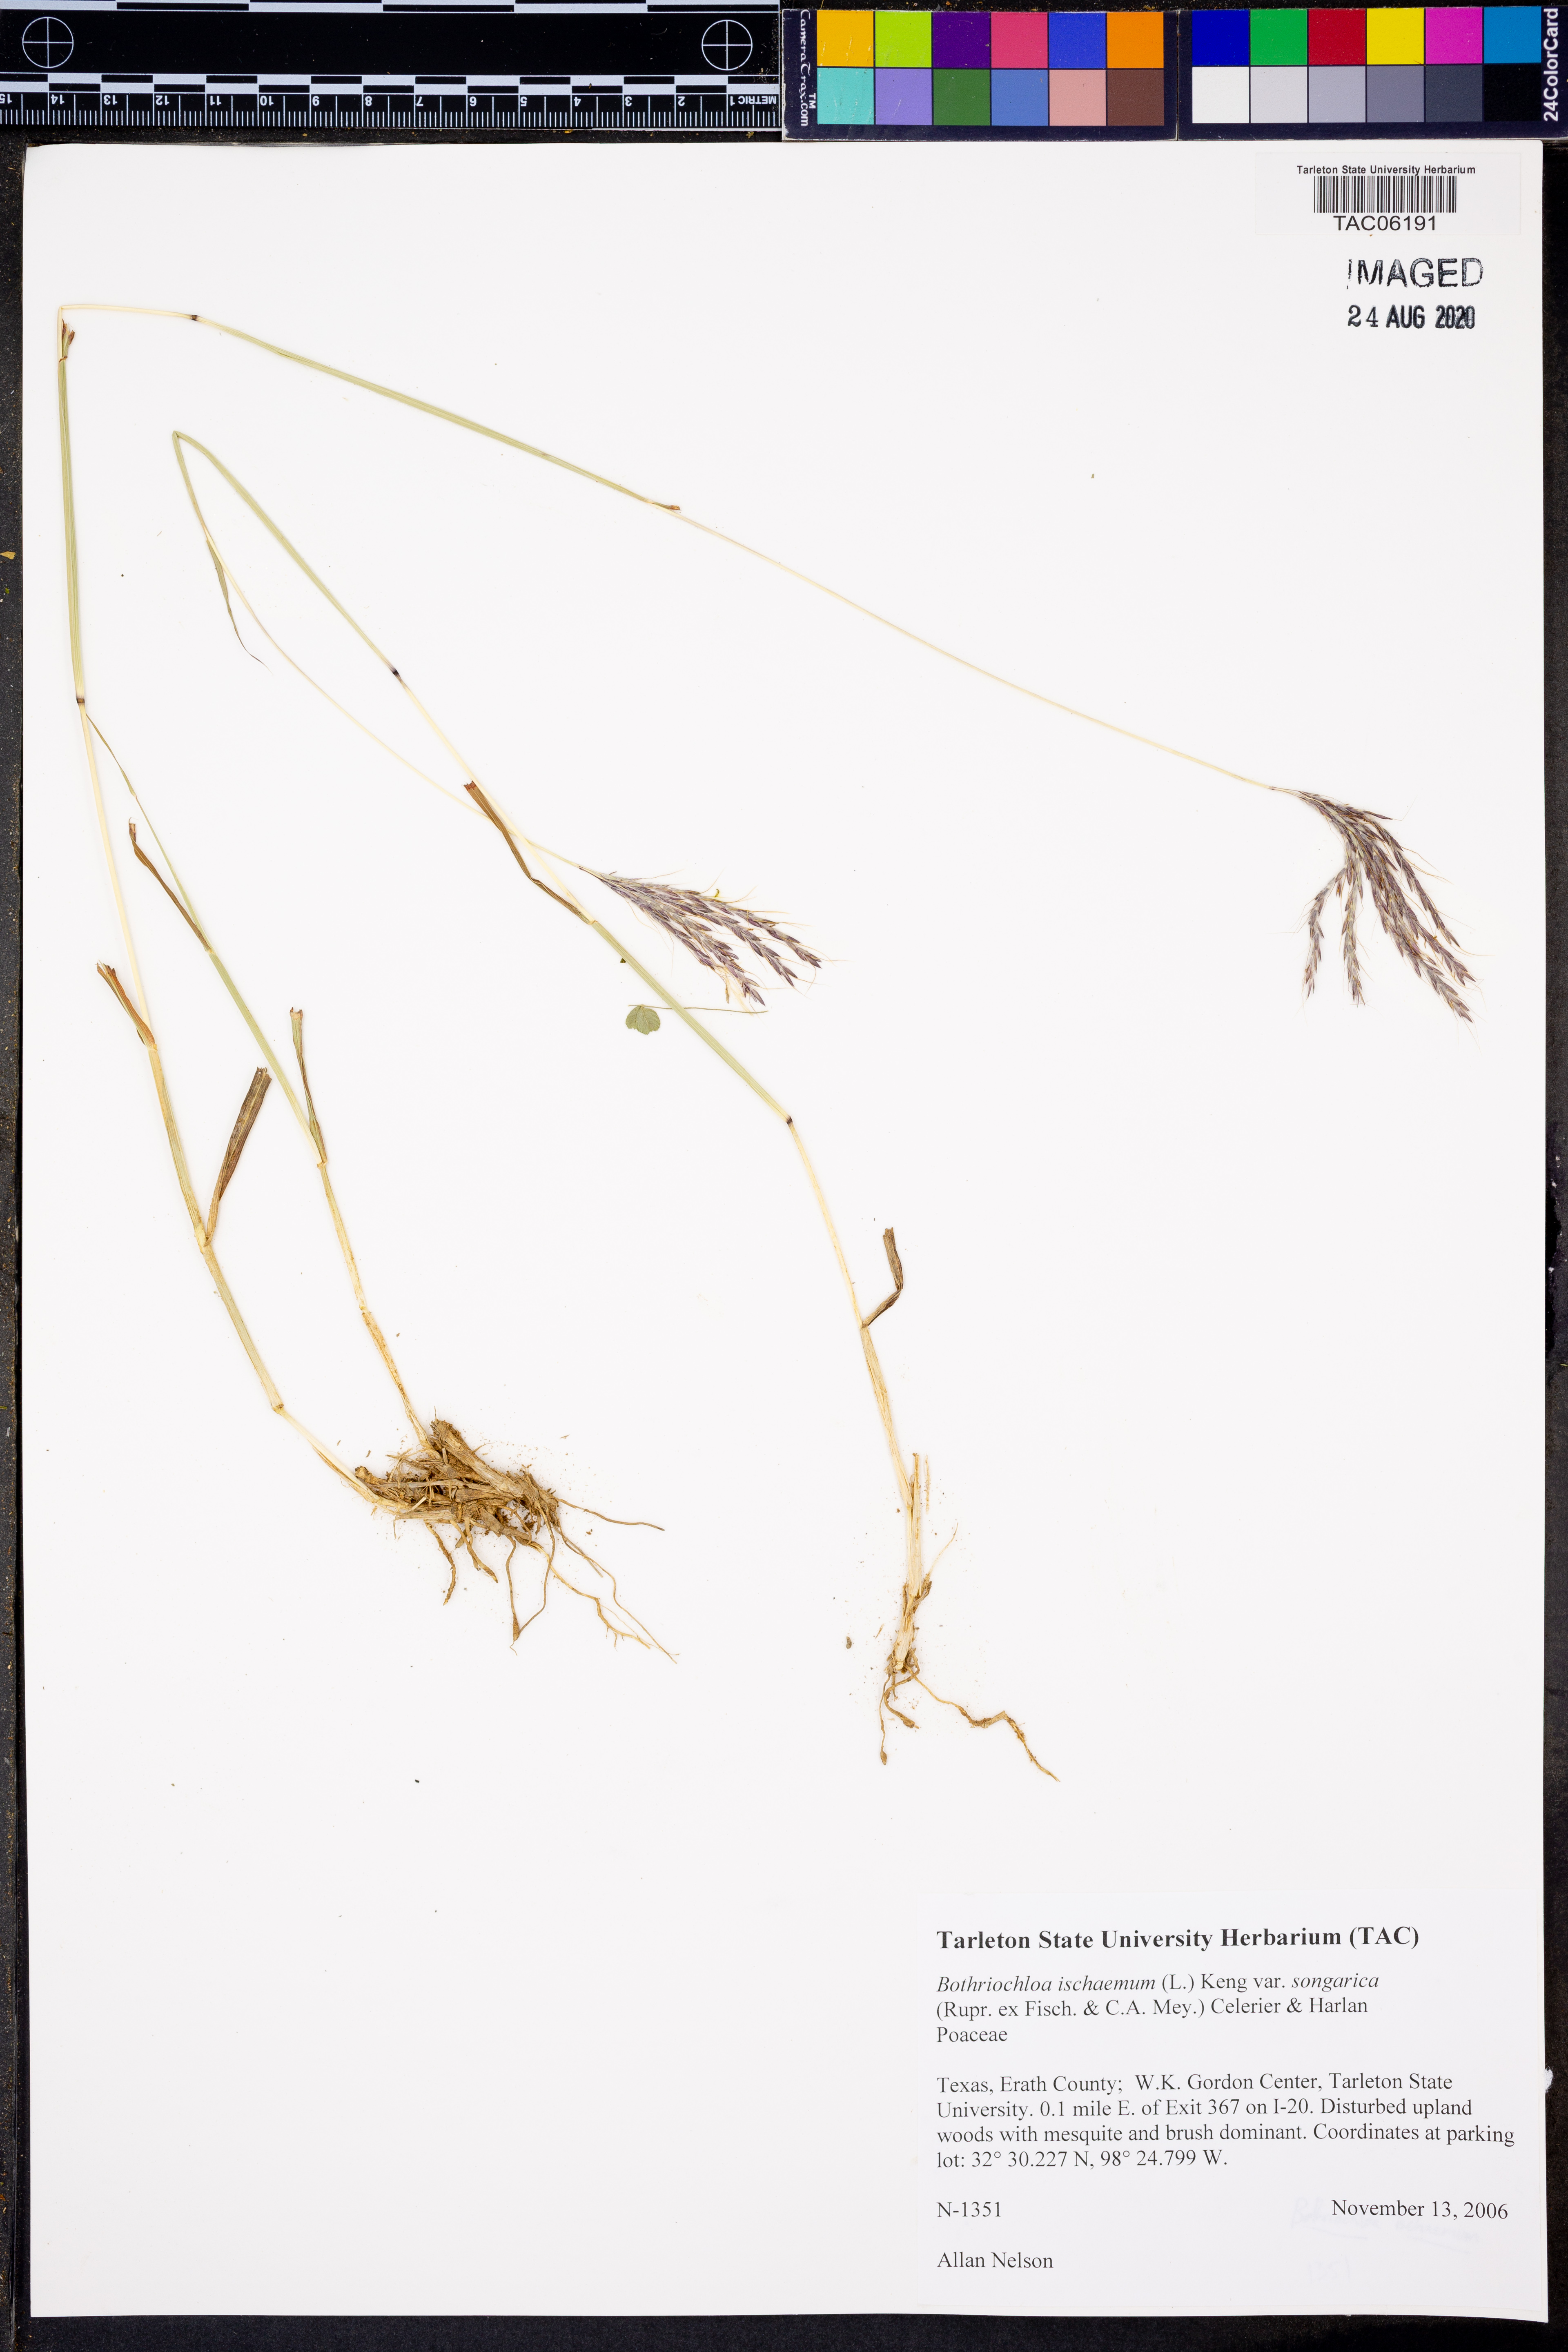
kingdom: Plantae
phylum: Tracheophyta
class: Liliopsida
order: Poales
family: Poaceae
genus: Bothriochloa
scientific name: Bothriochloa ischaemum
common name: Yellow bluestem
